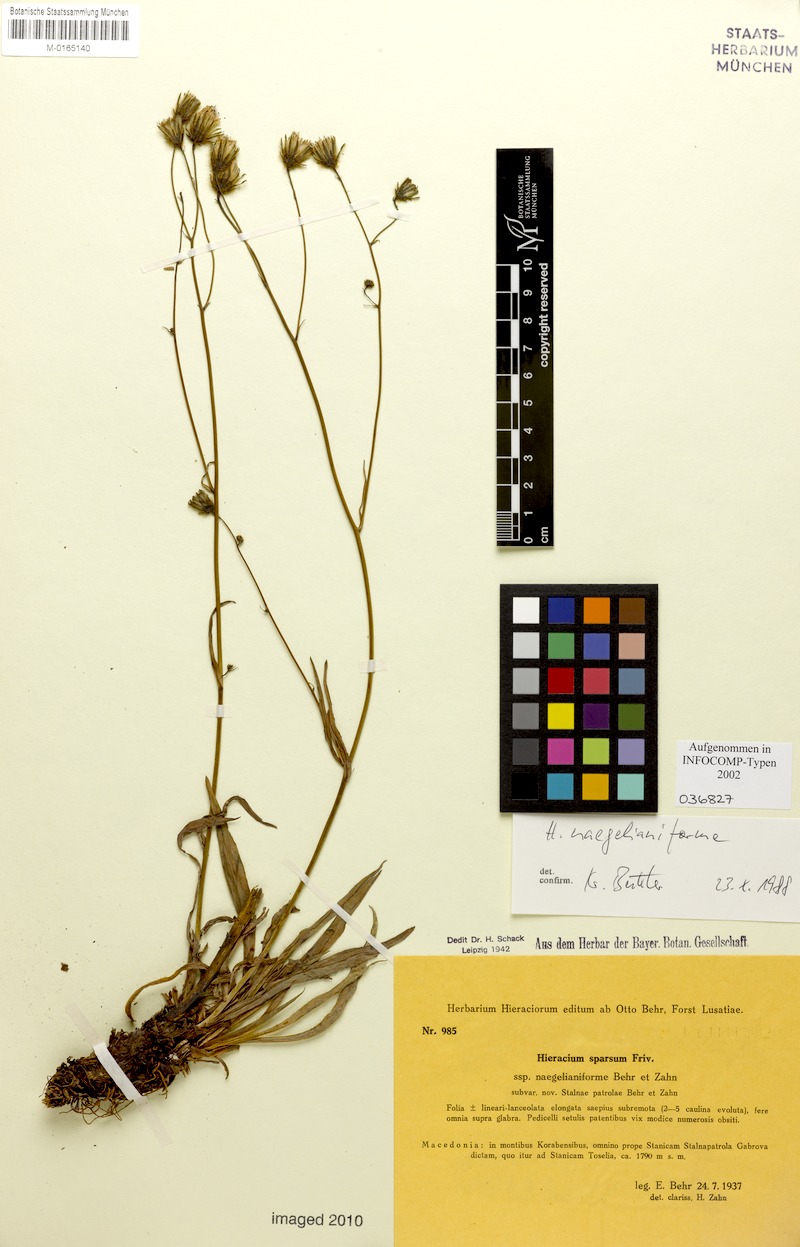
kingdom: Plantae
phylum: Tracheophyta
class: Magnoliopsida
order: Asterales
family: Asteraceae
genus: Hieracium
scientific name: Hieracium sparsum
